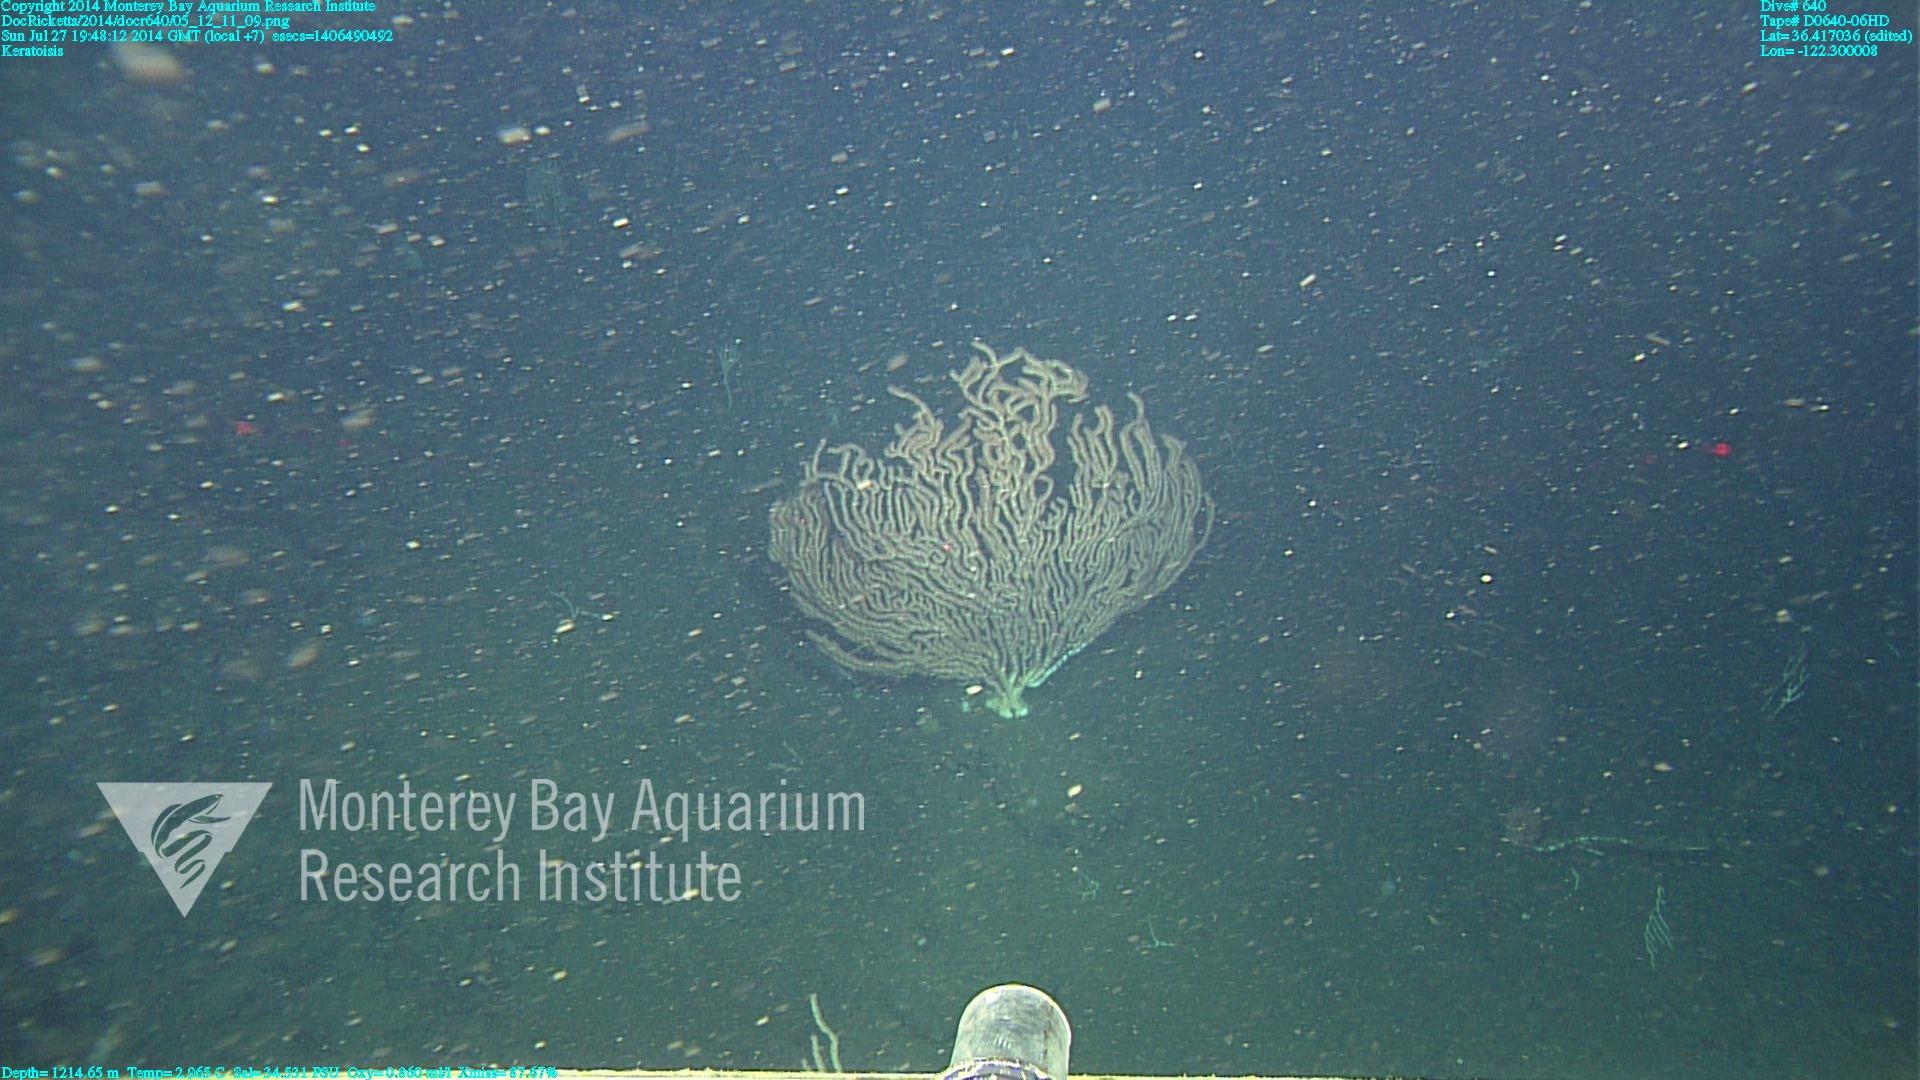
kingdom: Animalia
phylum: Cnidaria
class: Anthozoa
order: Scleralcyonacea
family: Keratoisididae
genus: Keratoisis
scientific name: Keratoisis
